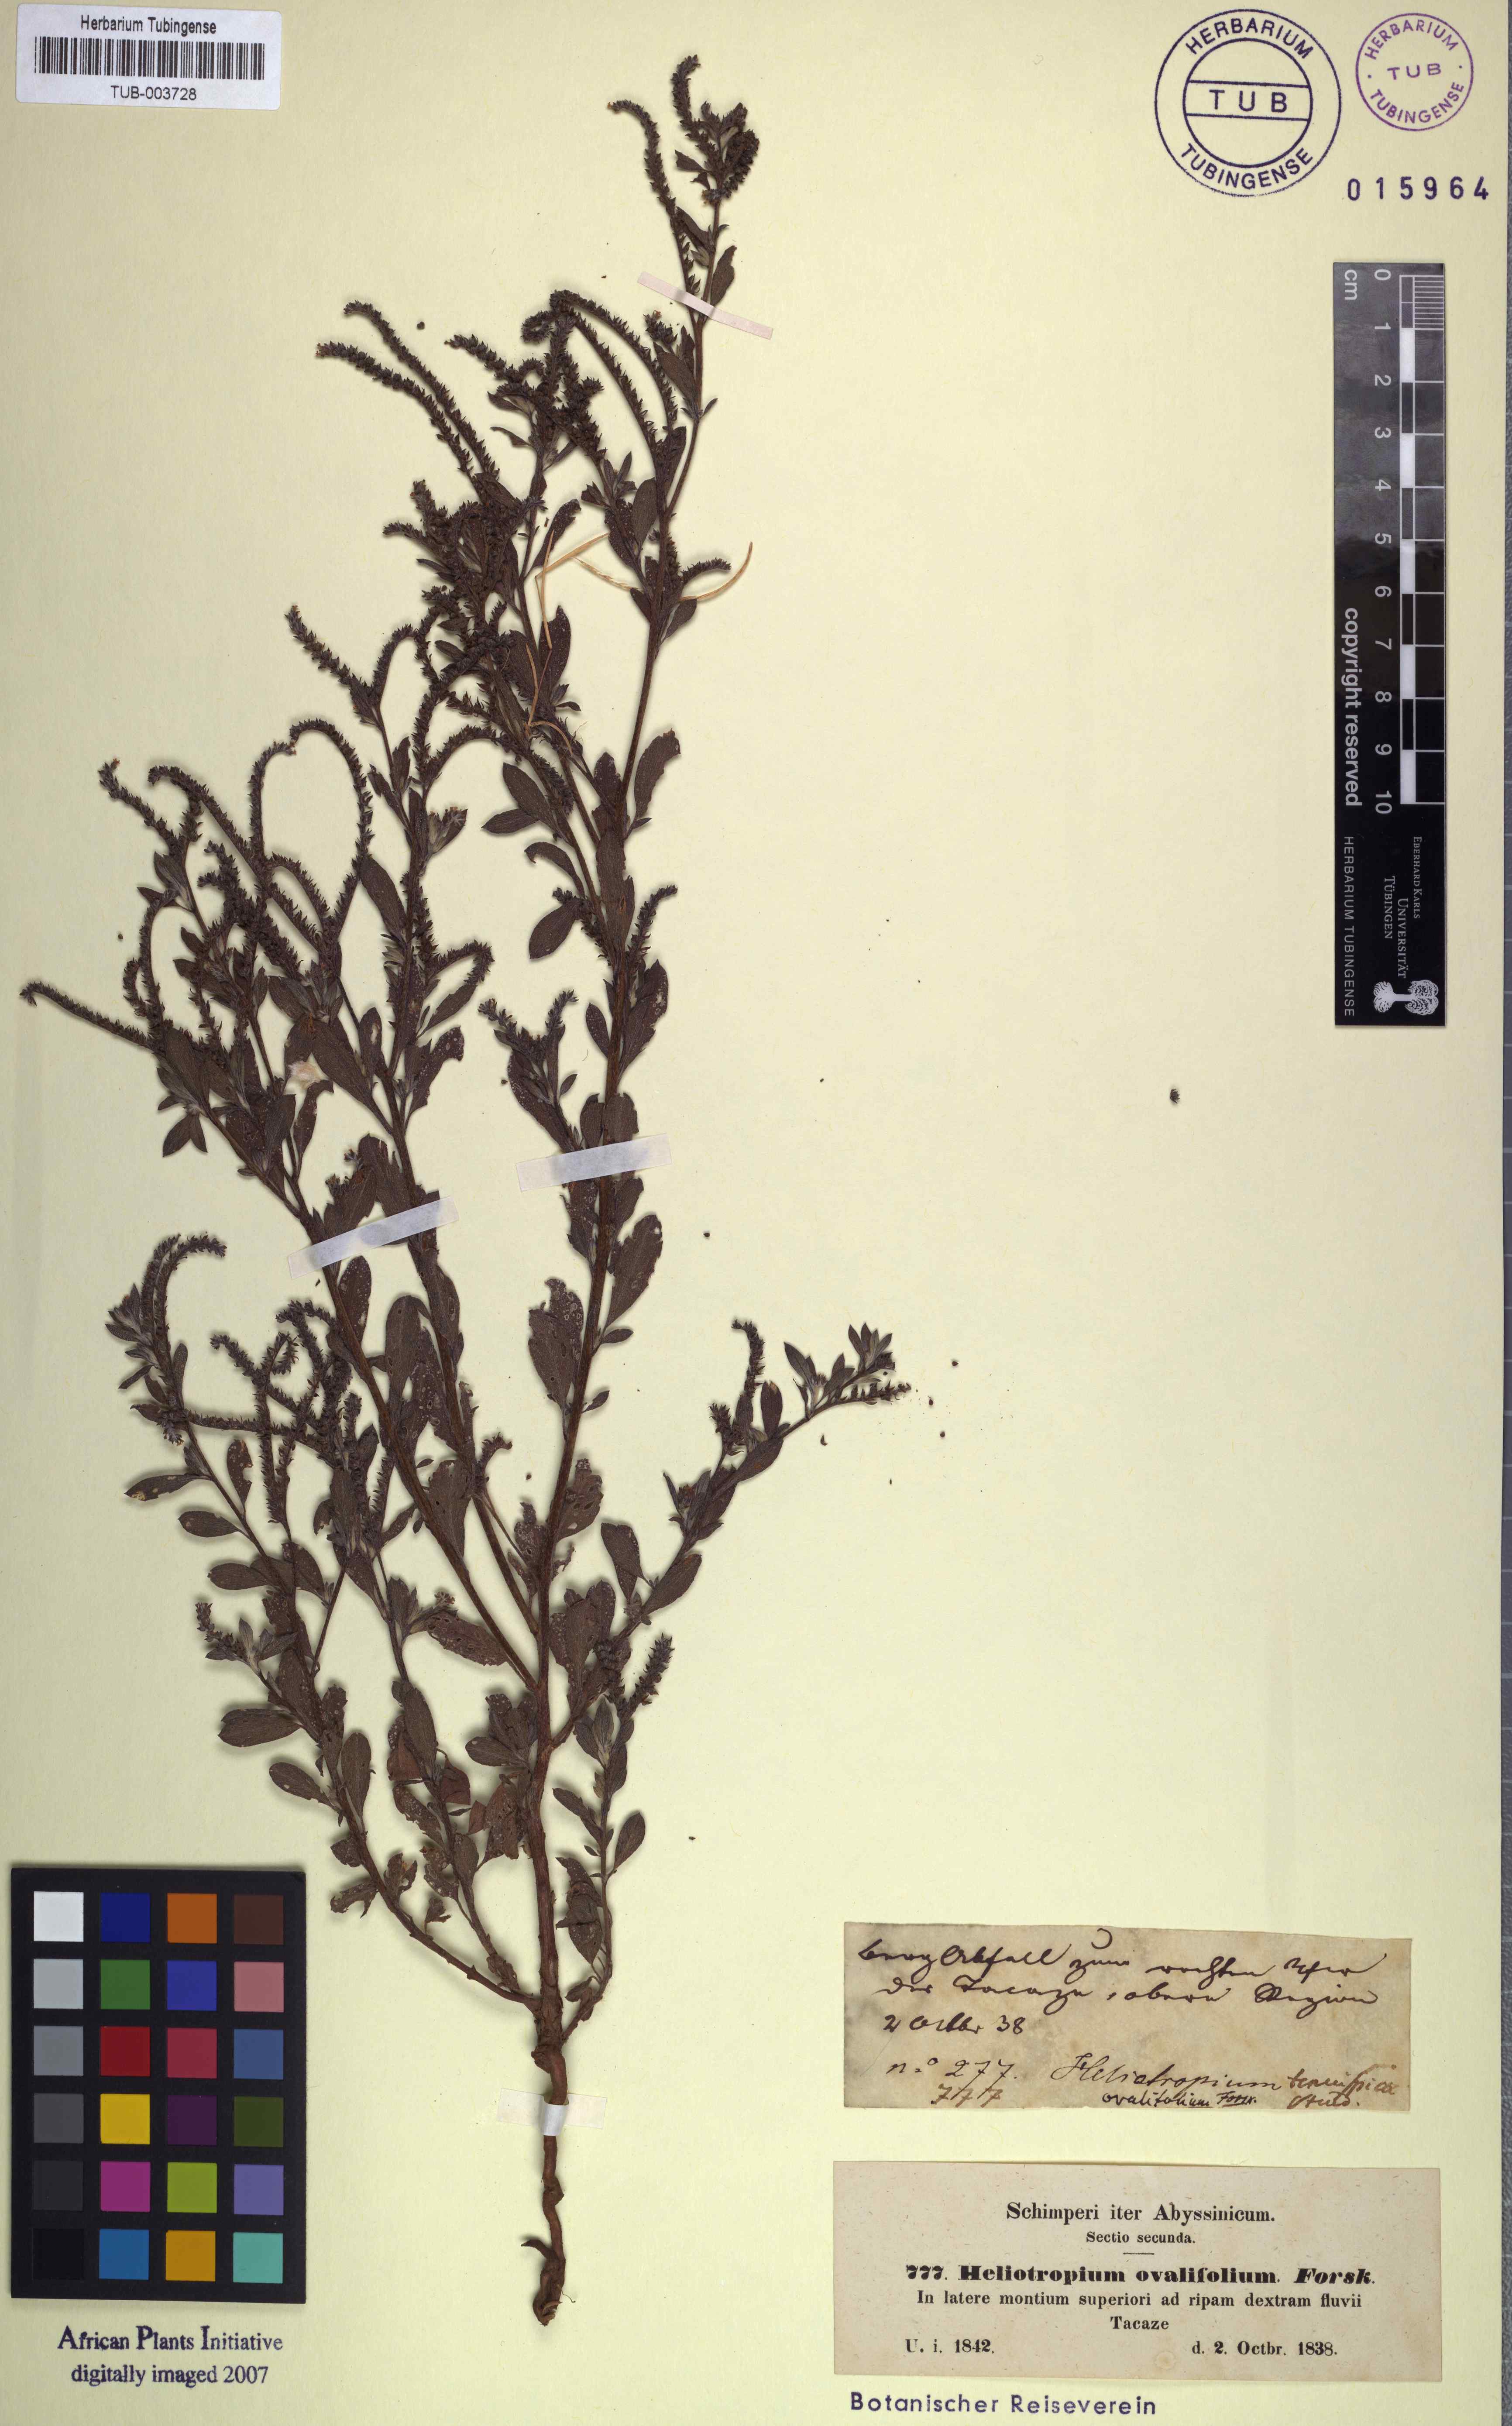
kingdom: Plantae
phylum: Tracheophyta
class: Magnoliopsida
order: Boraginales
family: Heliotropiaceae
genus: Euploca
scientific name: Euploca ovalifolia
